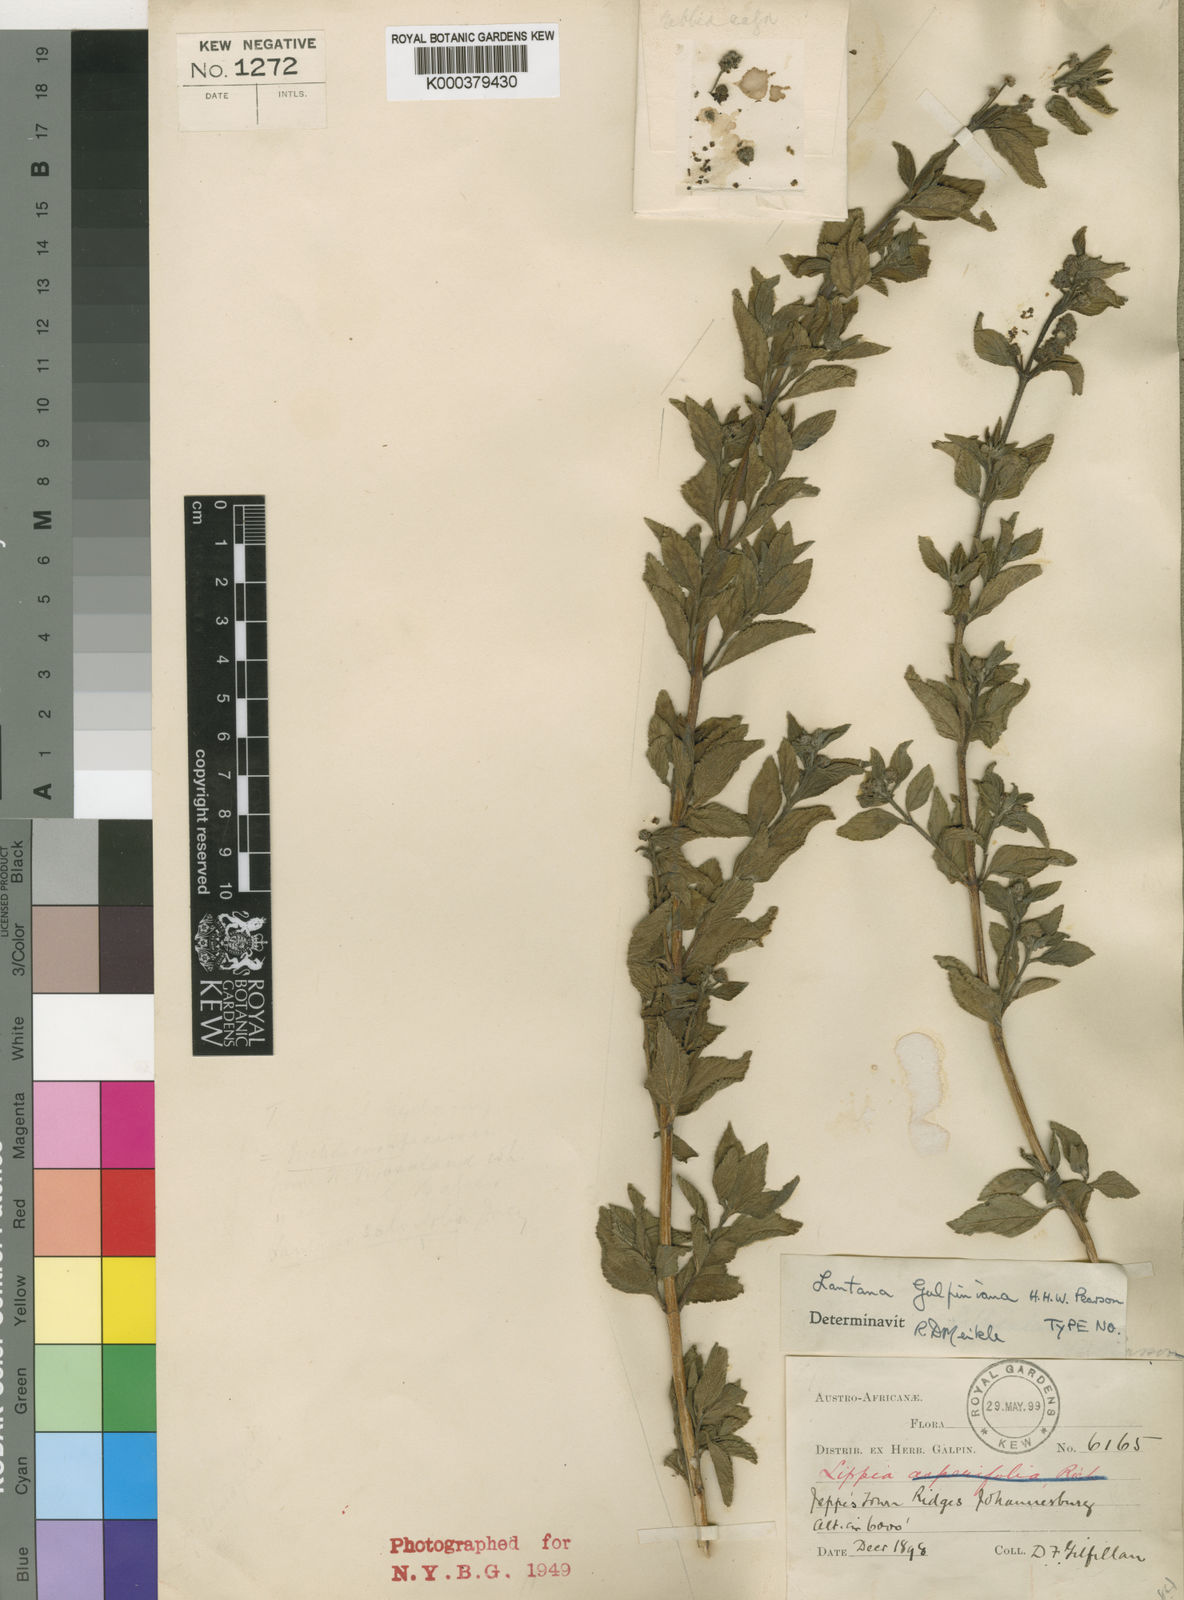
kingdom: Plantae
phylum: Tracheophyta
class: Magnoliopsida
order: Lamiales
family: Verbenaceae
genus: Lippia
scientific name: Lippia
